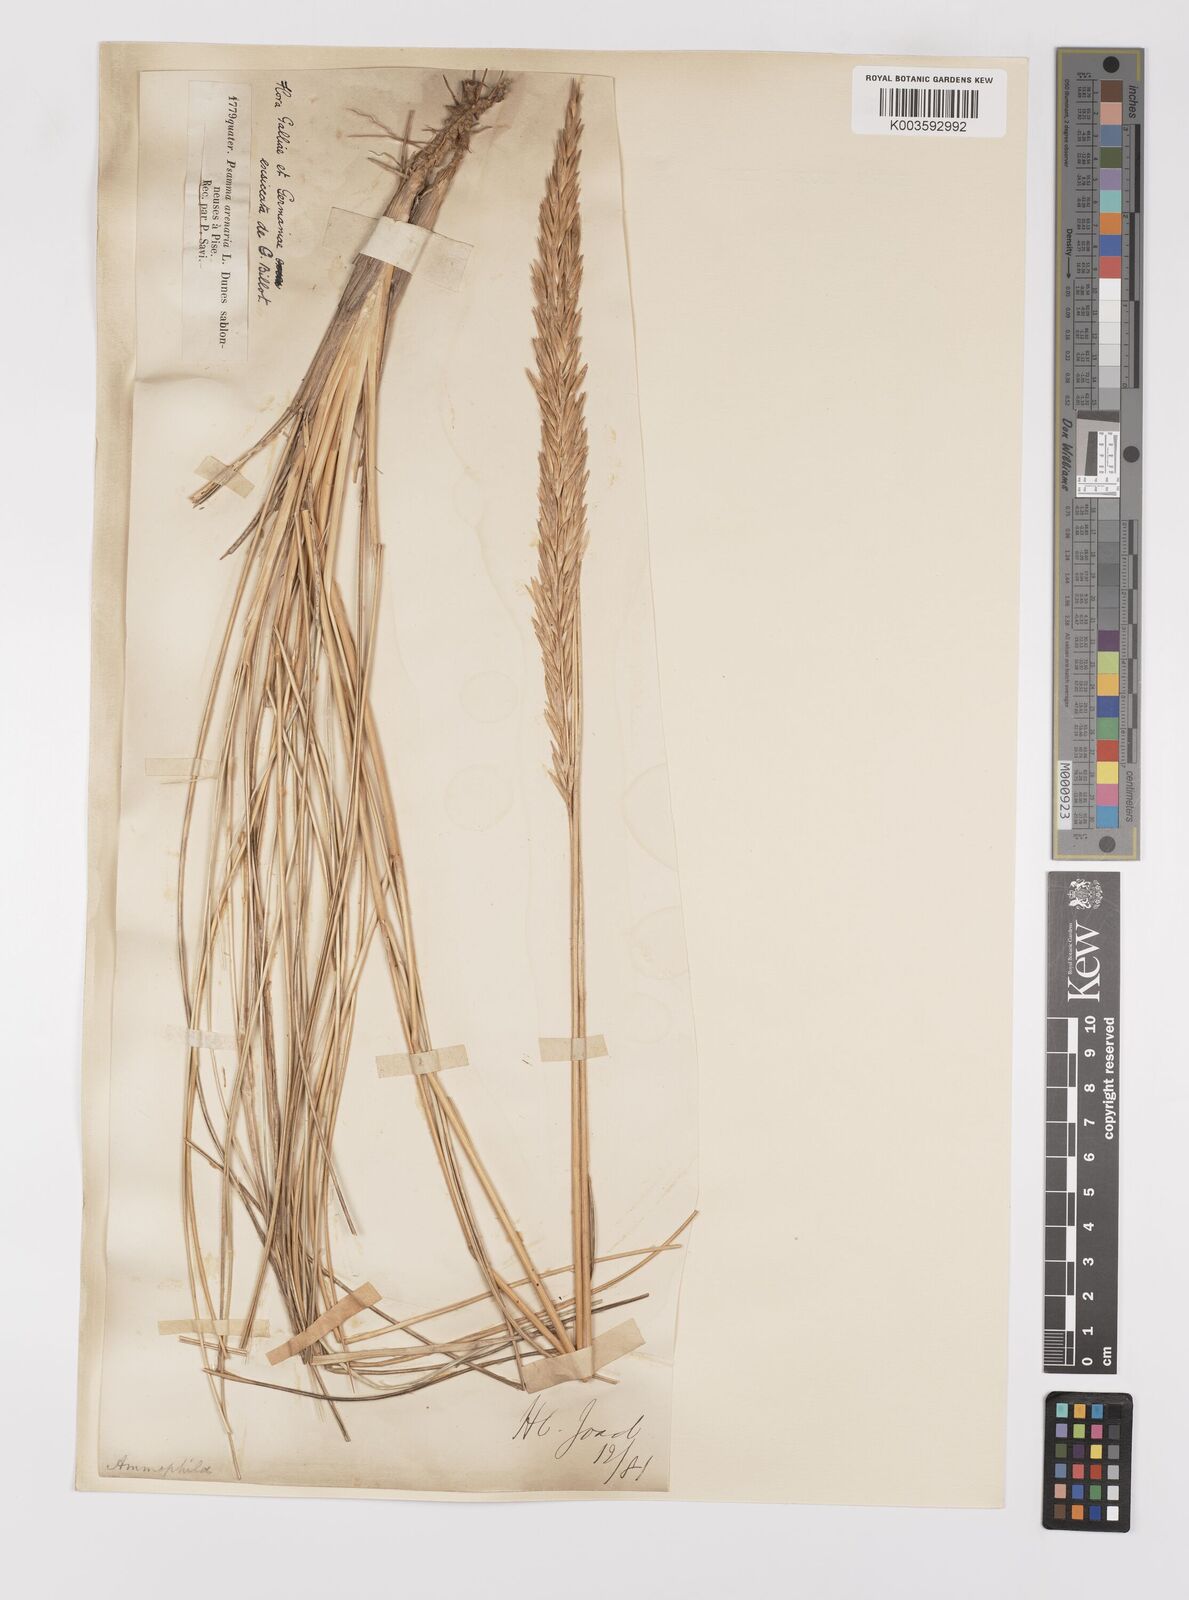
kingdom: Plantae
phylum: Tracheophyta
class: Liliopsida
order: Poales
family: Poaceae
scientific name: Poaceae
